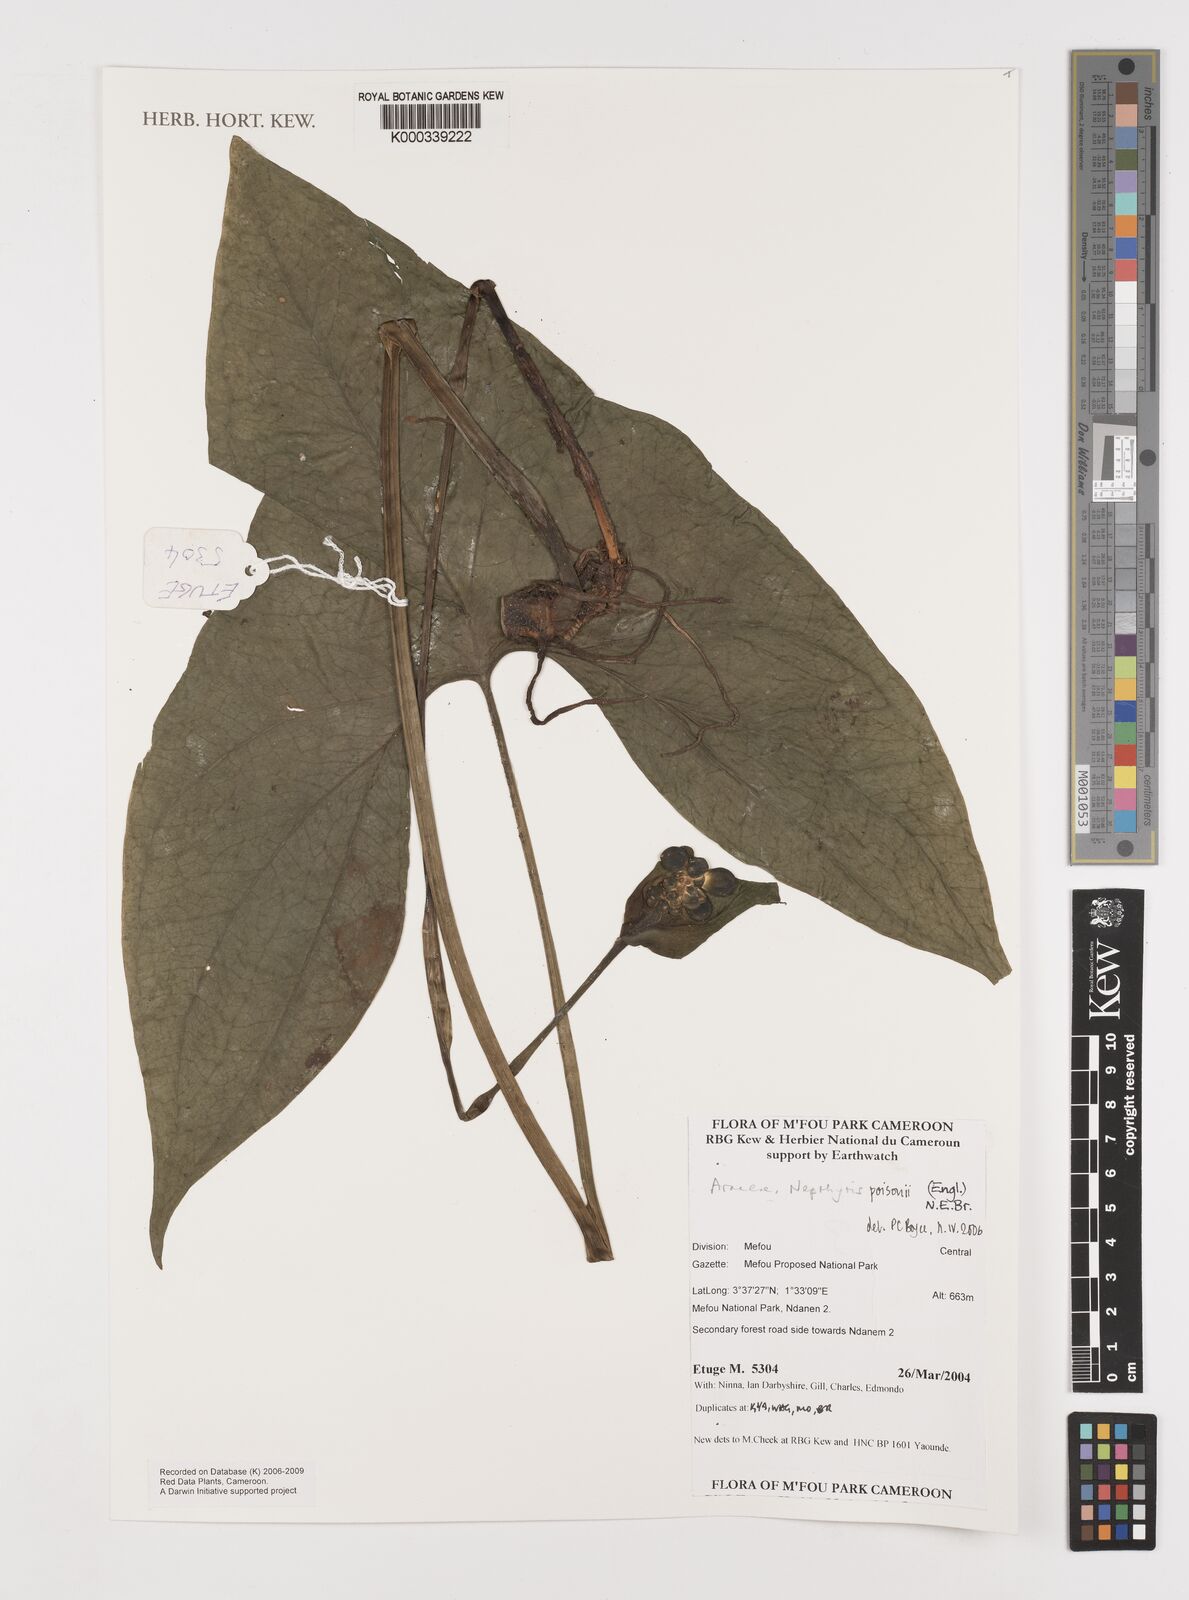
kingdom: Plantae
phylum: Tracheophyta
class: Liliopsida
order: Alismatales
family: Araceae
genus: Nephthytis
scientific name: Nephthytis poissonii
